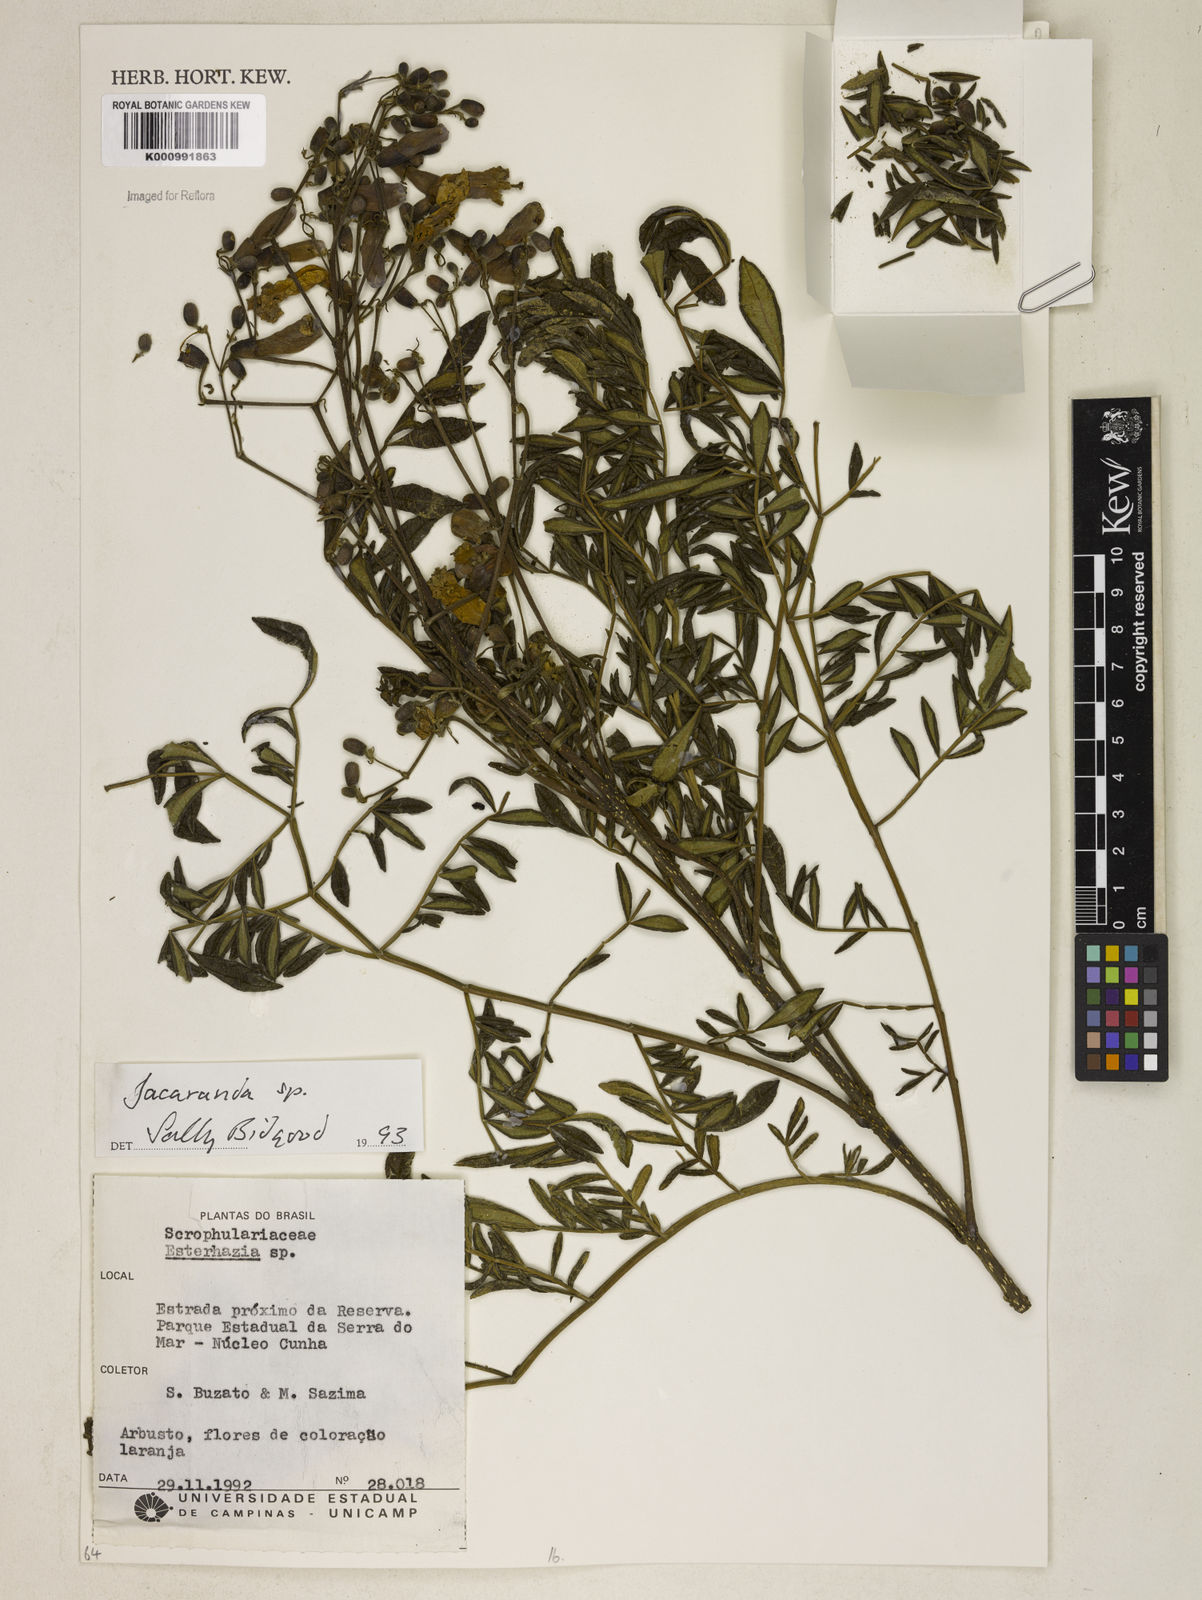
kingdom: Plantae
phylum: Tracheophyta
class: Magnoliopsida
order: Lamiales
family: Bignoniaceae
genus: Jacaranda
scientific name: Jacaranda
